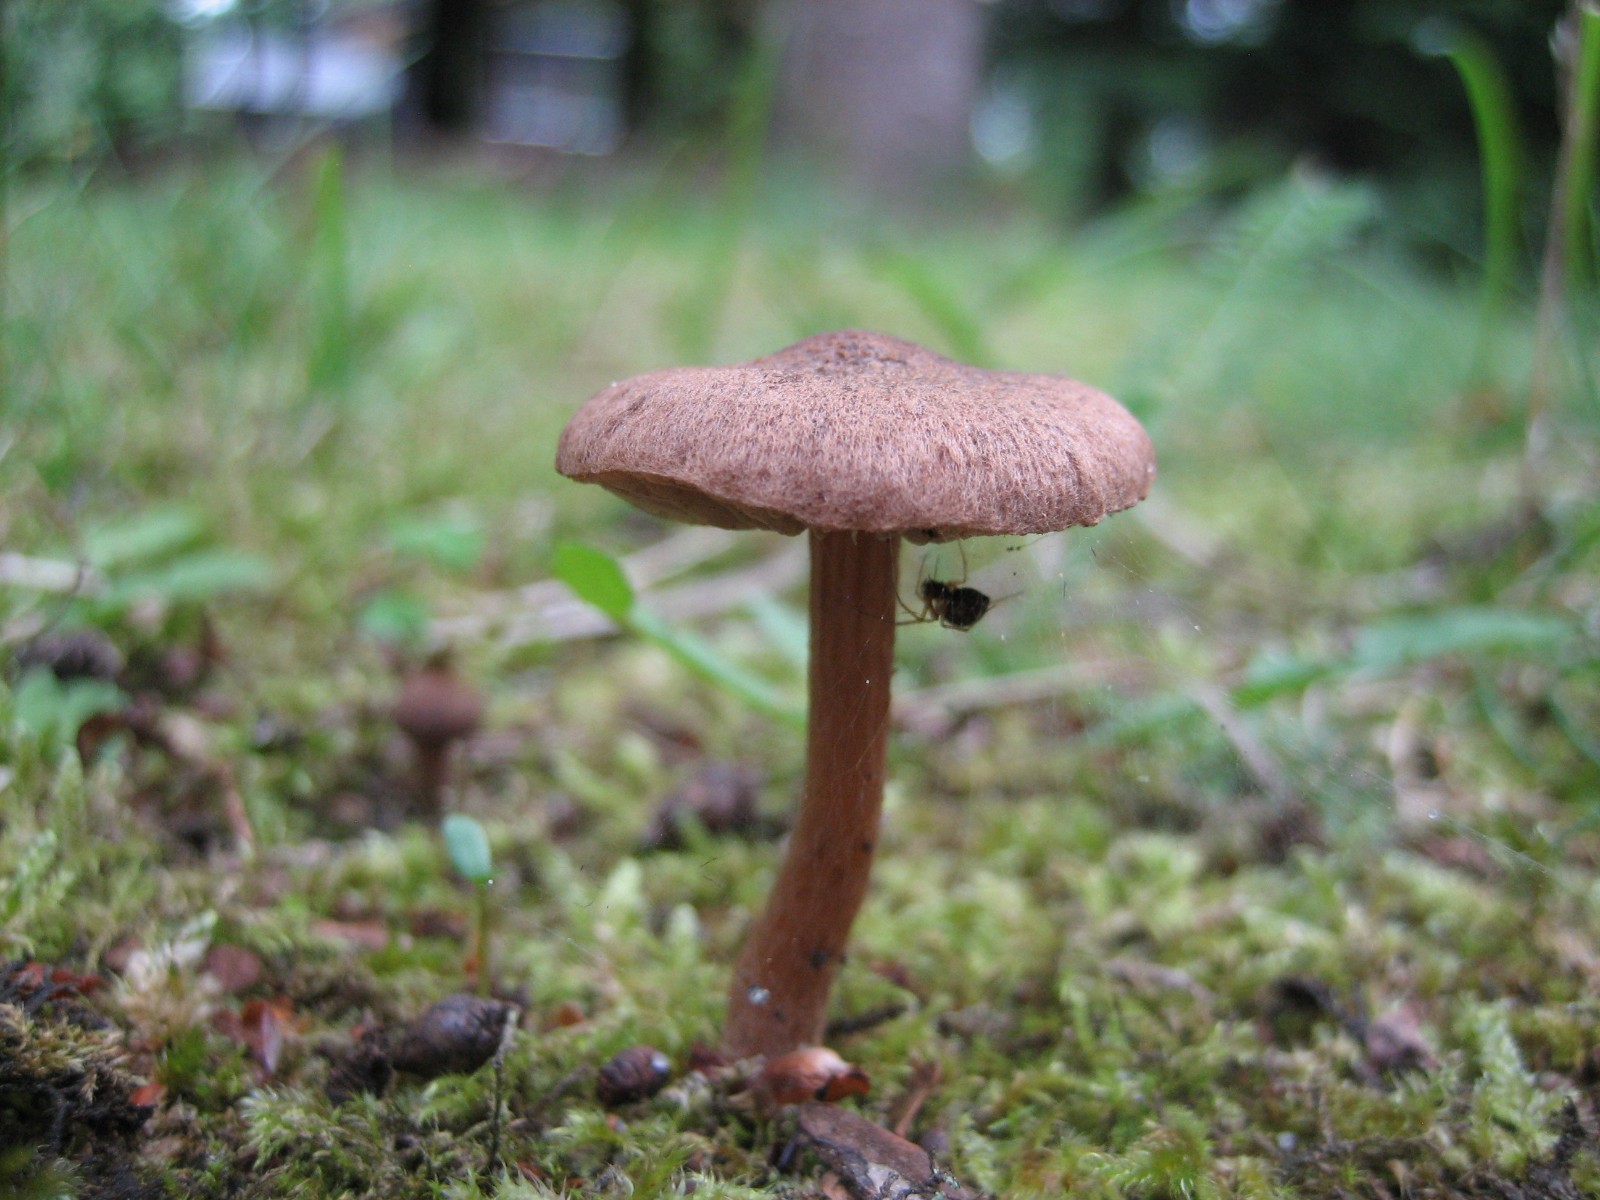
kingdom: Fungi
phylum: Basidiomycota
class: Agaricomycetes
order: Agaricales
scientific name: Agaricales
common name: champignonordenen
